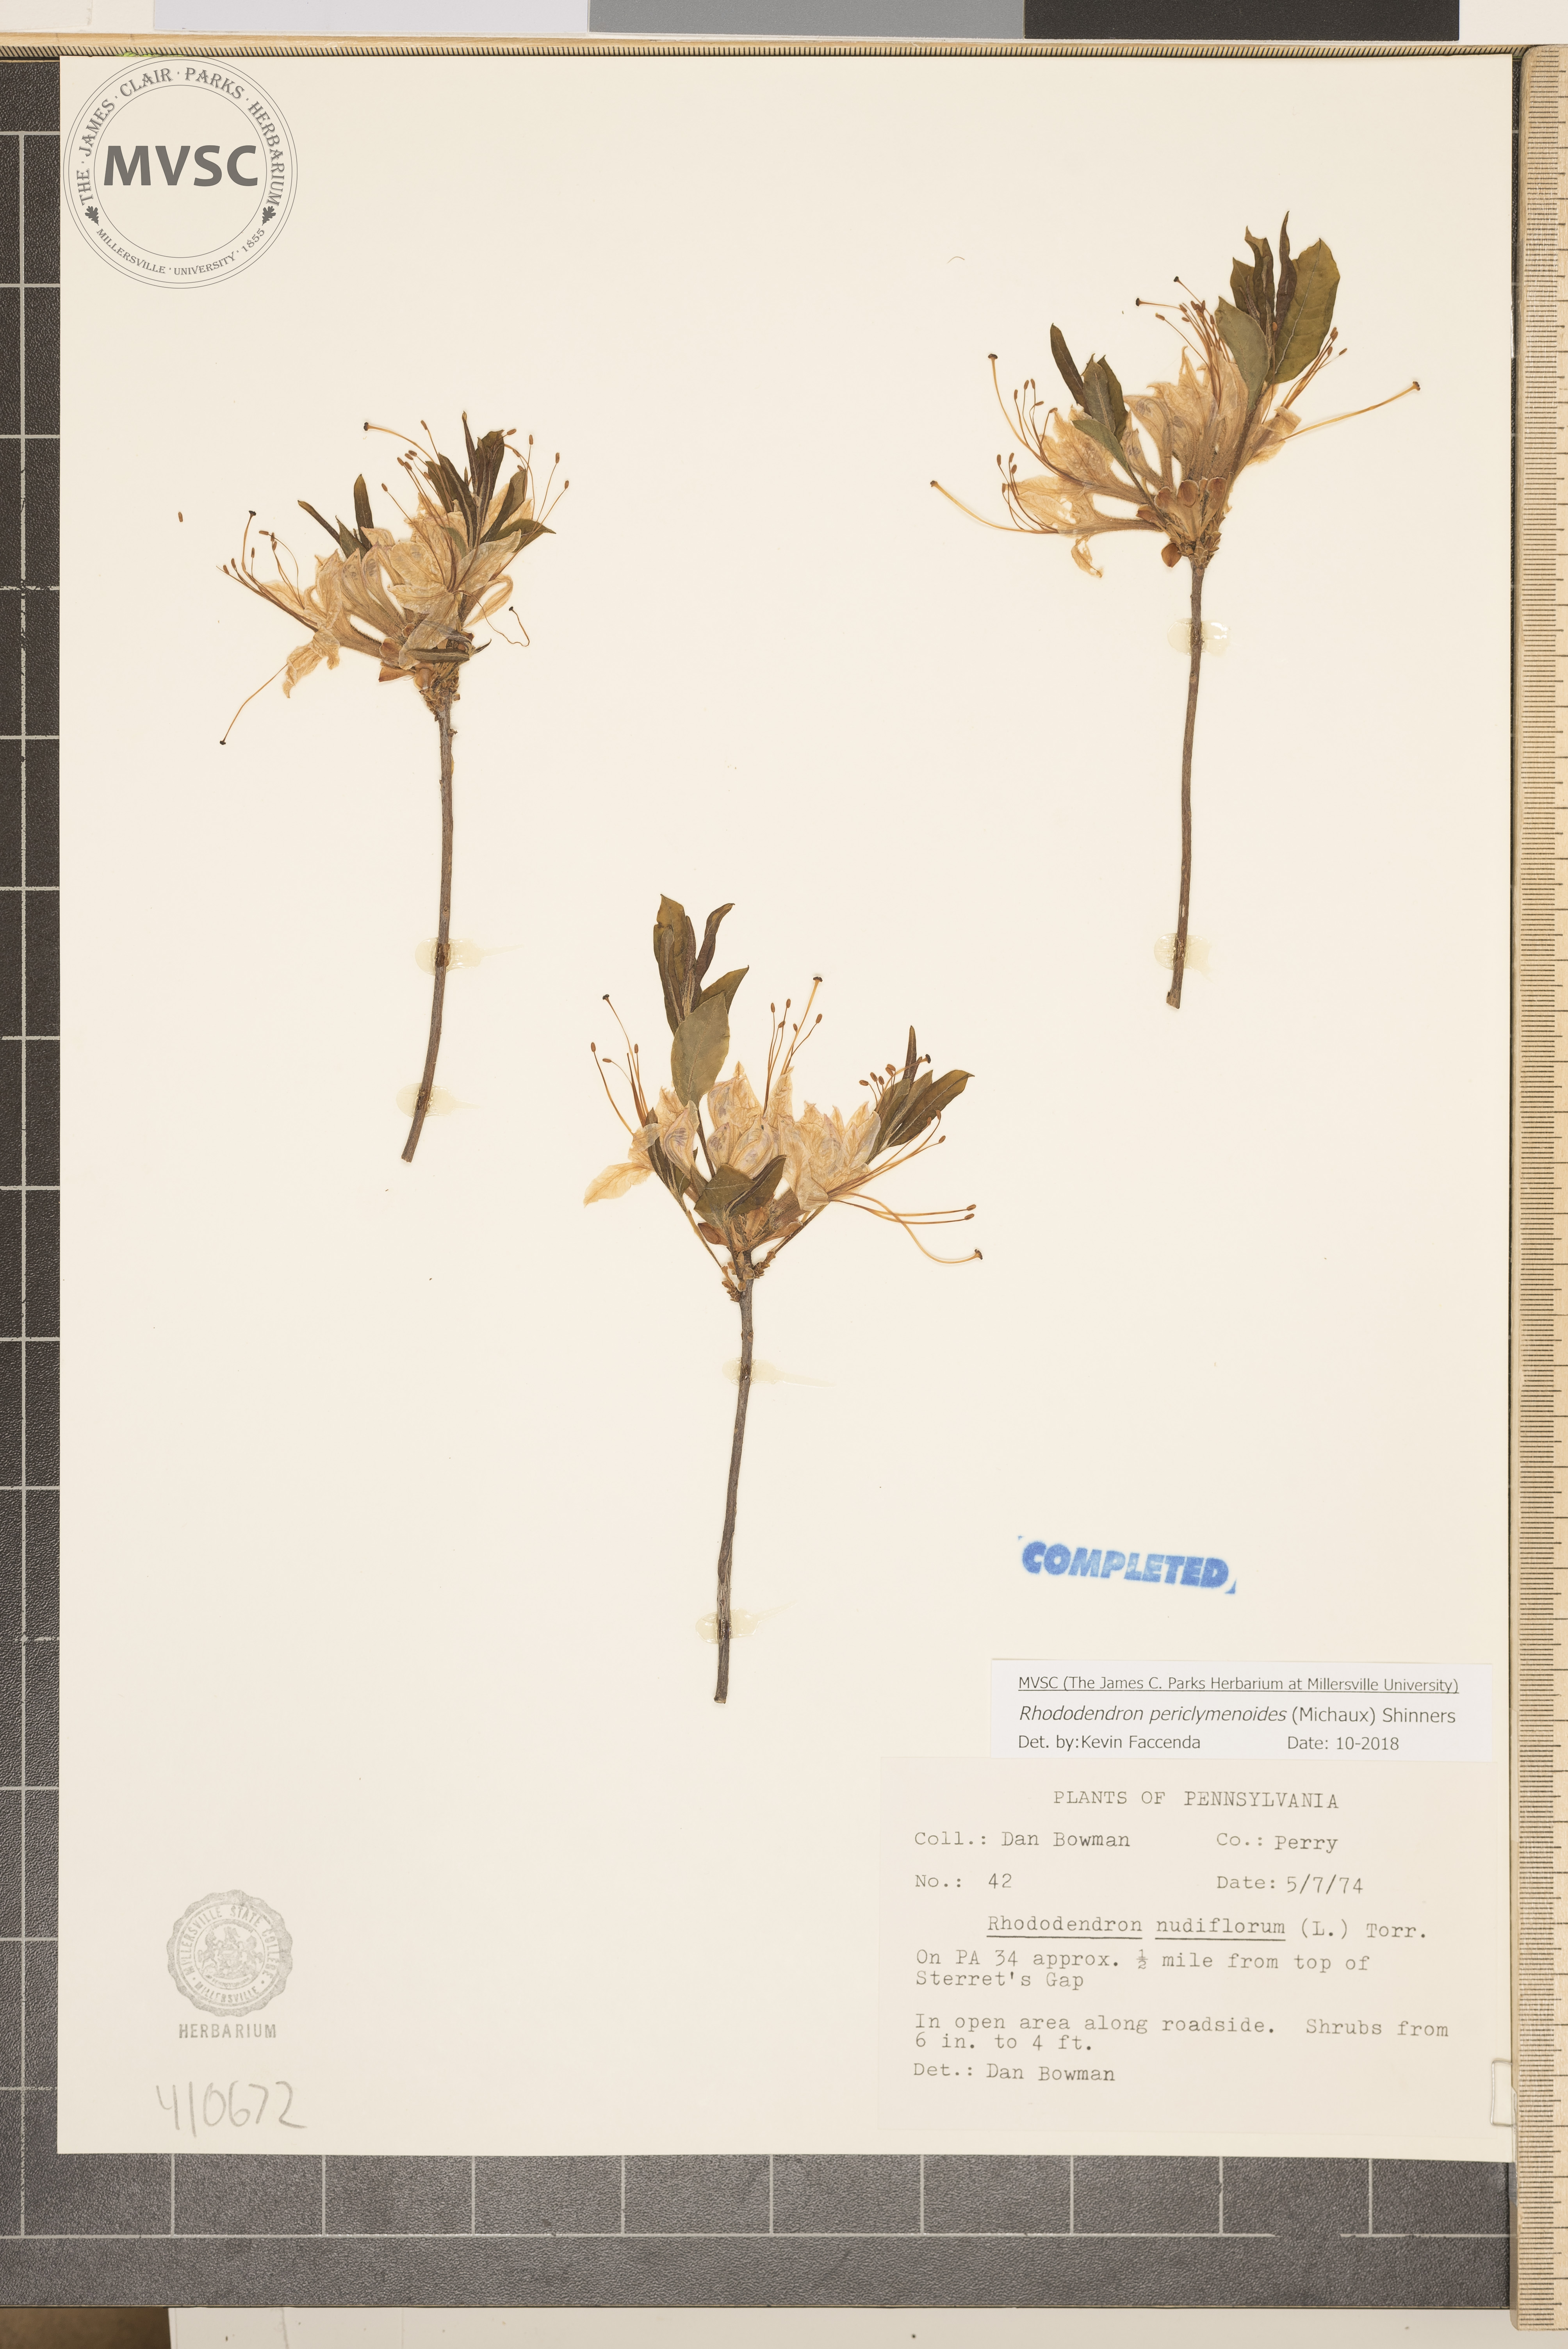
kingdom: Plantae
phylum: Tracheophyta
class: Magnoliopsida
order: Ericales
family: Ericaceae
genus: Rhododendron
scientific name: Rhododendron periclymenoides
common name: Election-pink
